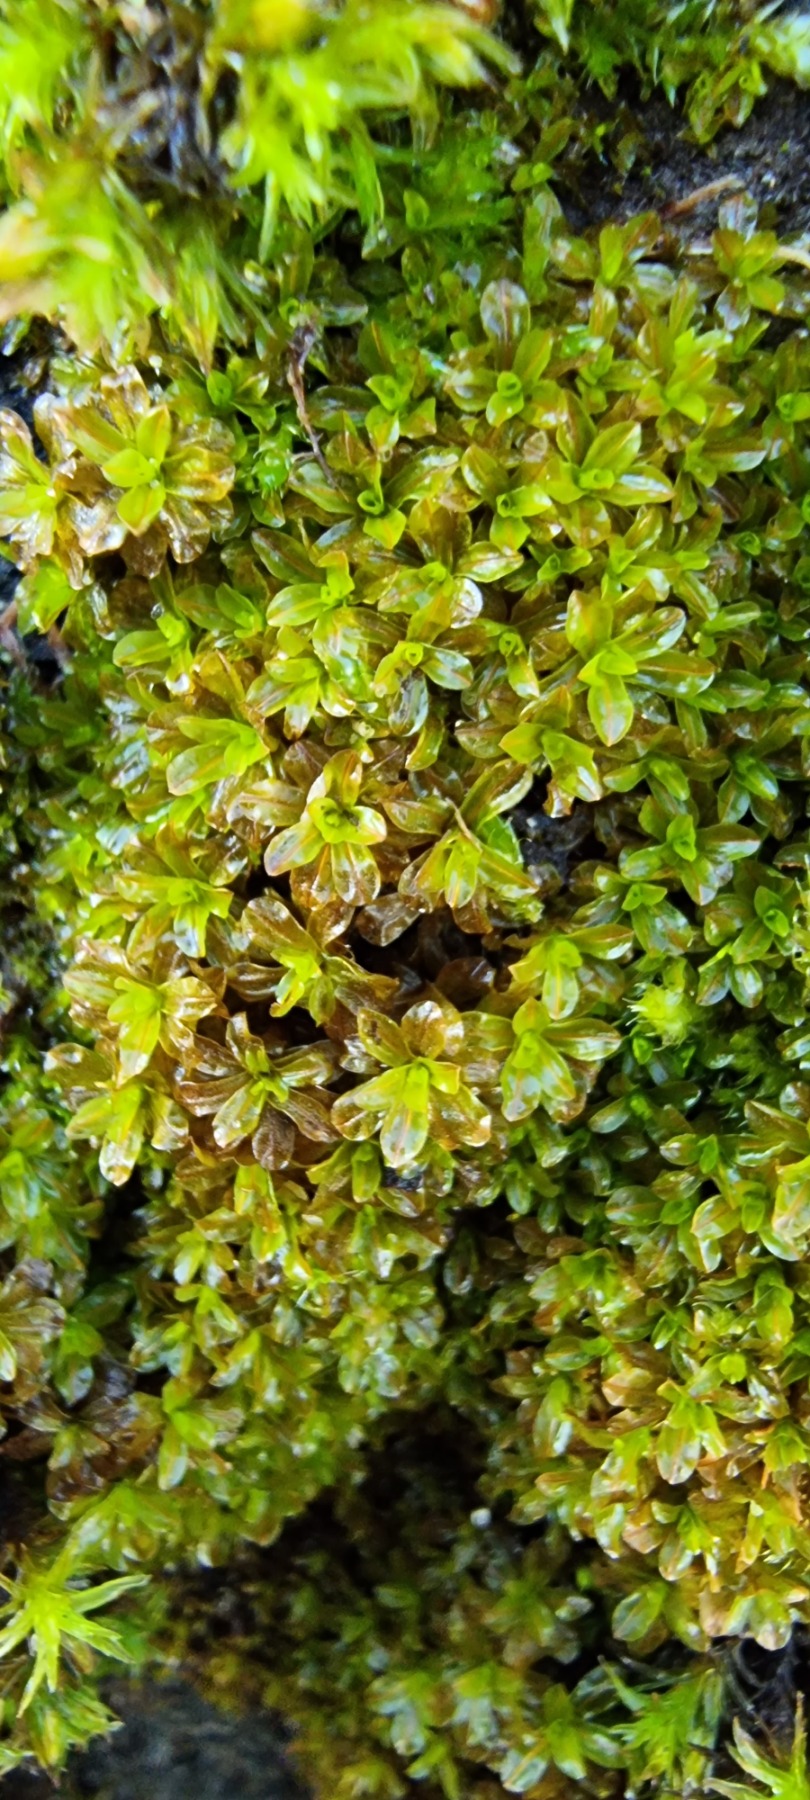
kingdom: Plantae
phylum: Bryophyta
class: Bryopsida
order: Pottiales
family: Pottiaceae
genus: Syntrichia
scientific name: Syntrichia latifolia
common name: Butbladet hårstjerne
